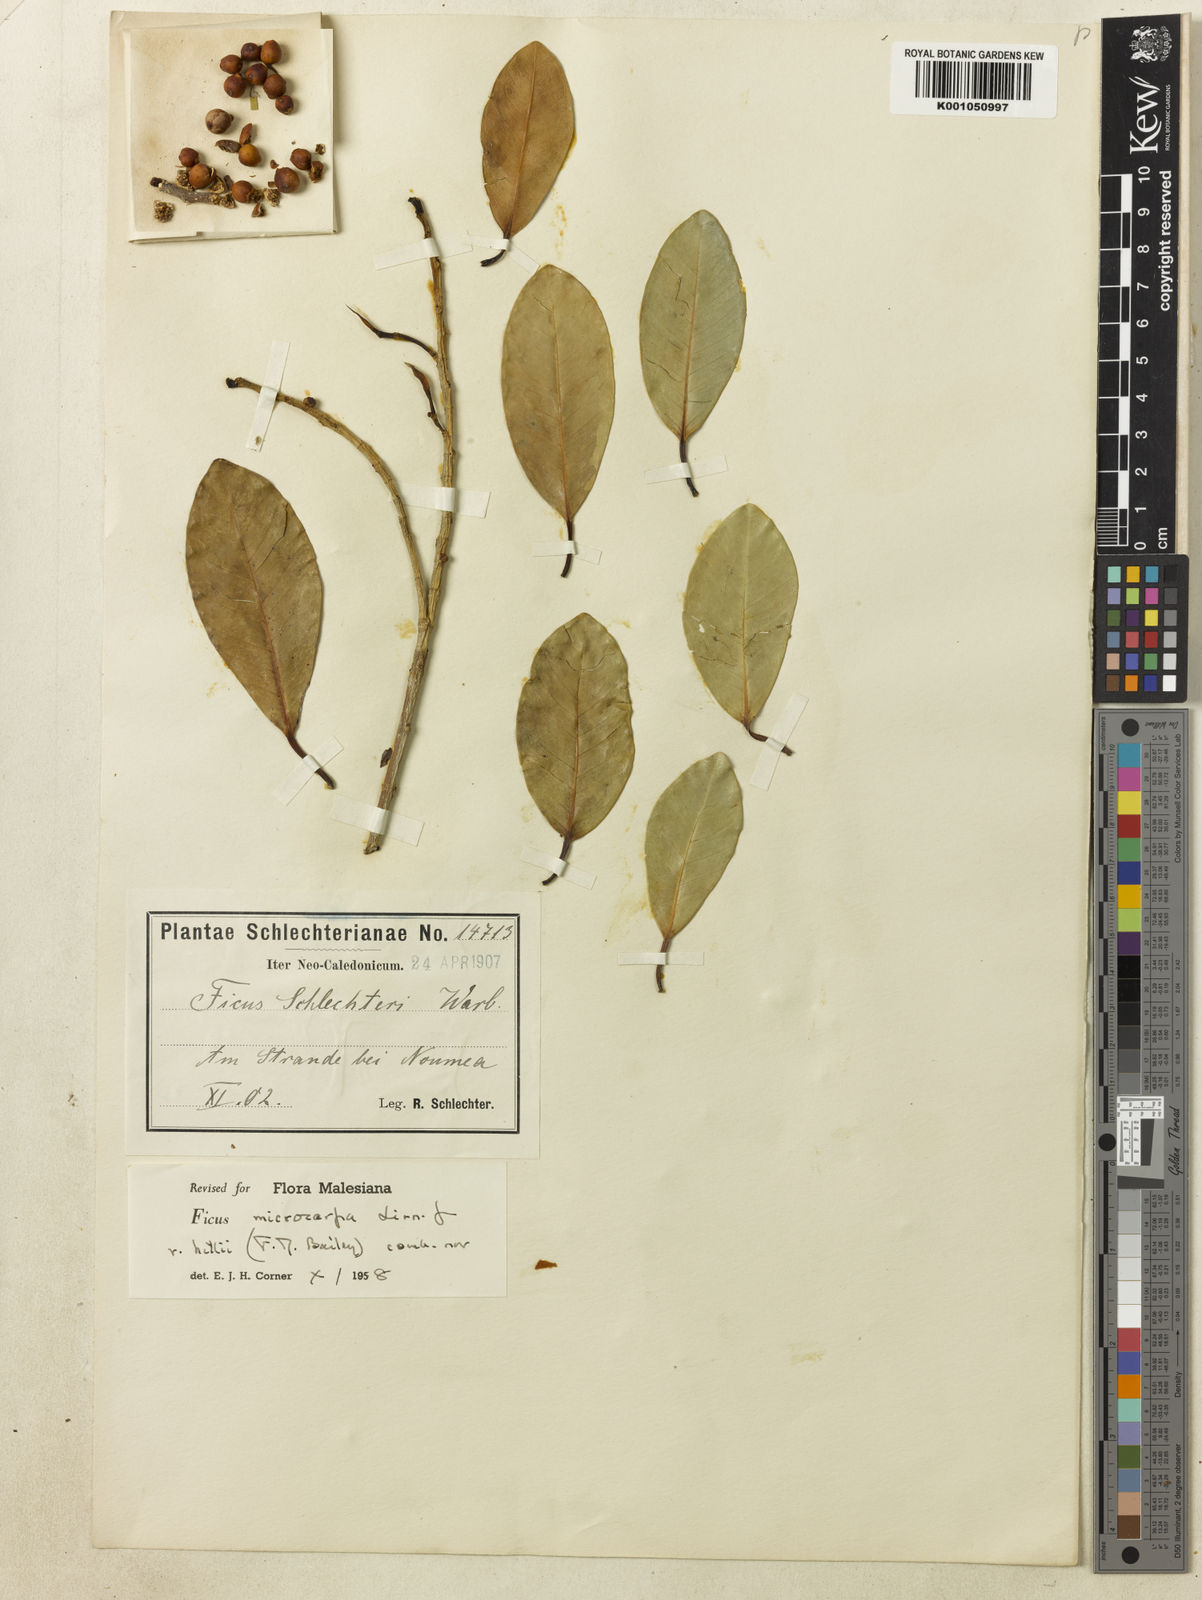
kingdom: Plantae
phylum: Tracheophyta
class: Magnoliopsida
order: Rosales
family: Moraceae
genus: Ficus
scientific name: Ficus microcarpa
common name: Chinese banyan
